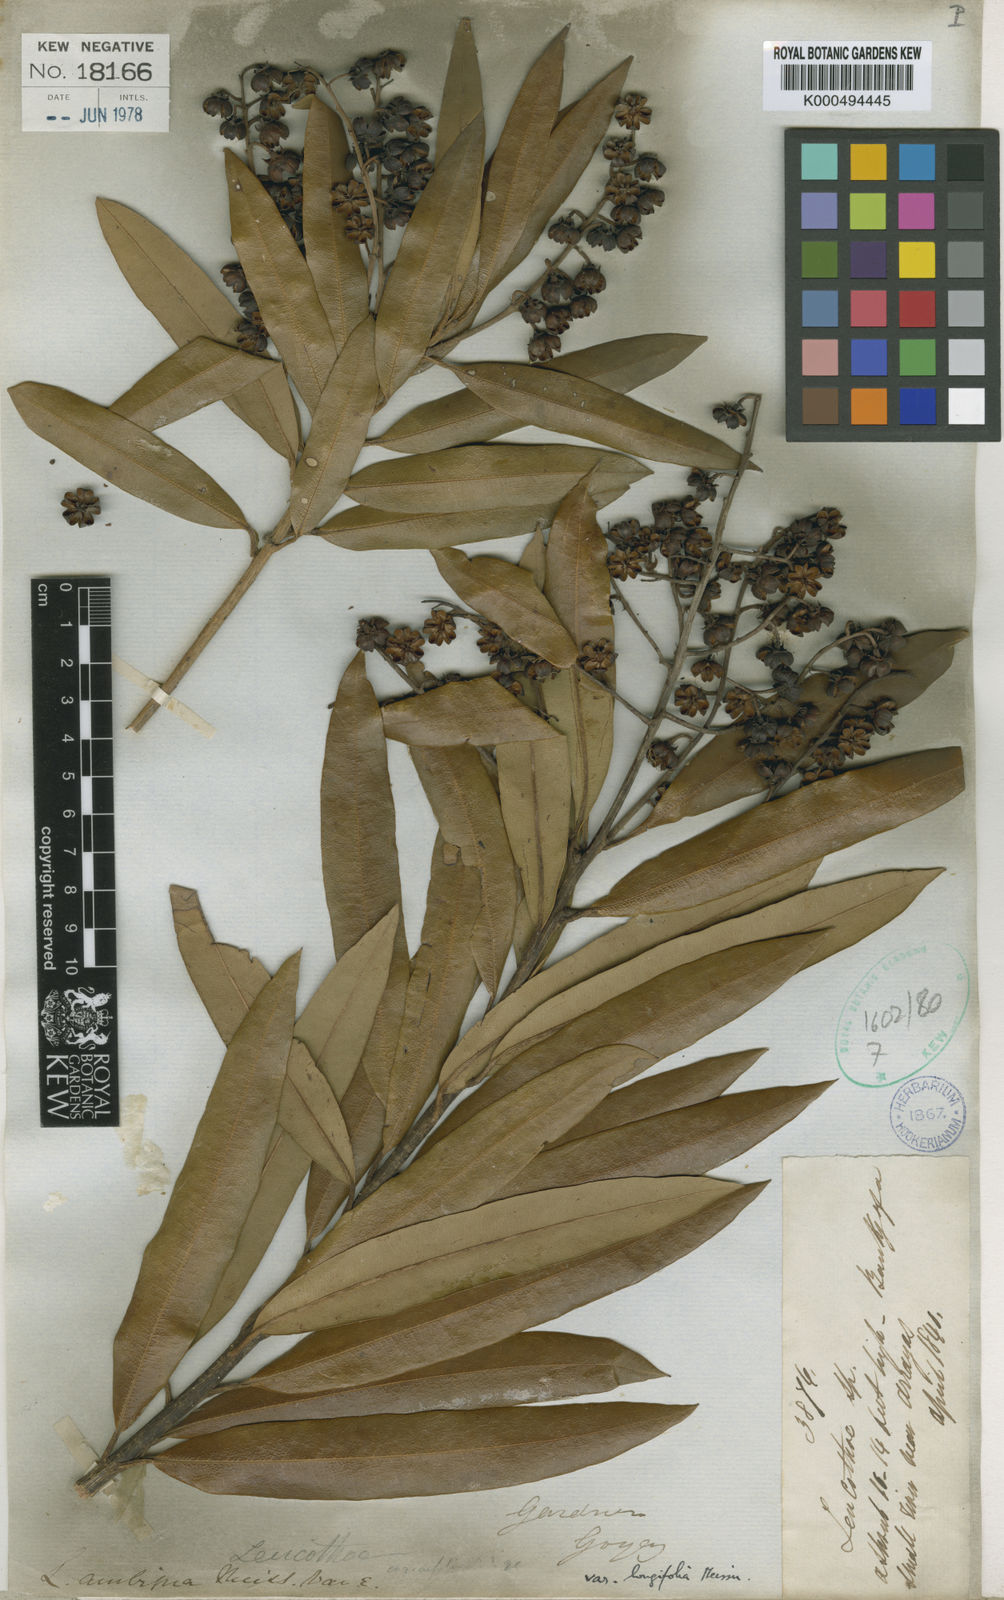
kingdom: Plantae
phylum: Tracheophyta
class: Magnoliopsida
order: Ericales
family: Ericaceae
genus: Agarista
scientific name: Agarista oleifolia
